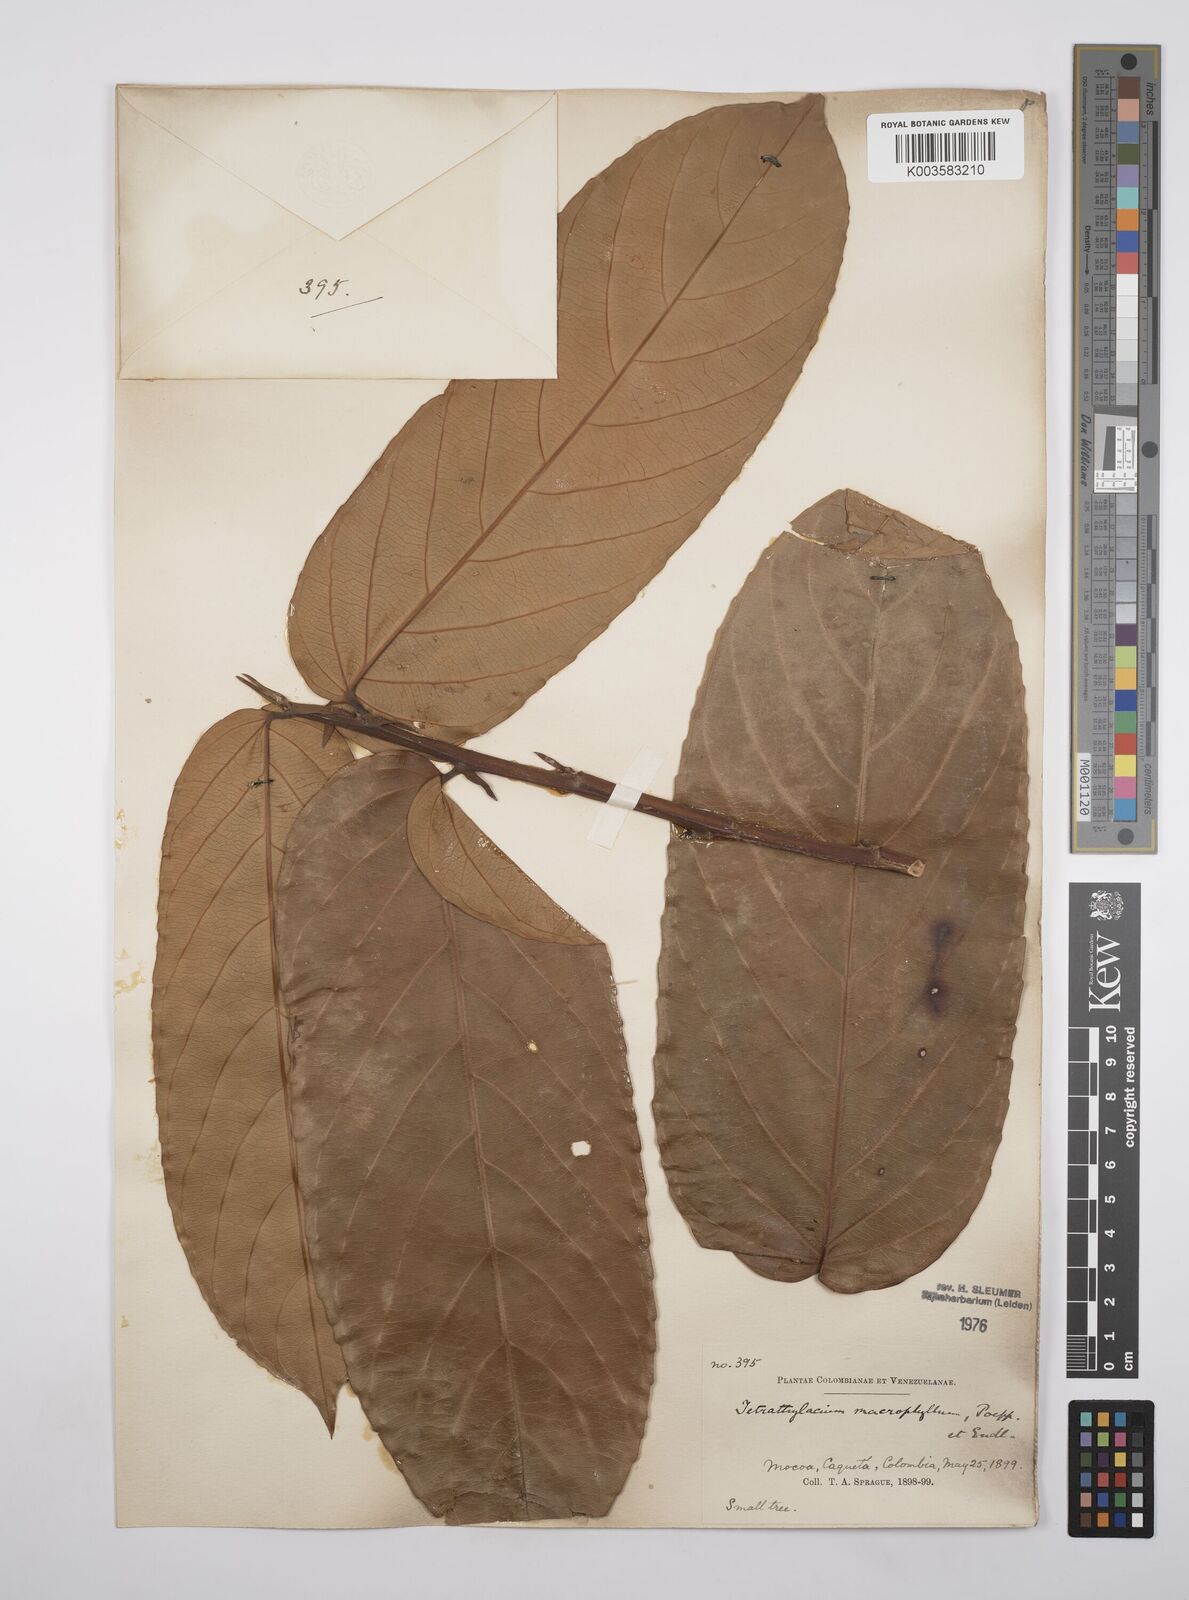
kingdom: Plantae
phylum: Tracheophyta
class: Magnoliopsida
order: Malpighiales
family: Salicaceae
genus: Tetrathylacium
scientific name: Tetrathylacium macrophyllum
